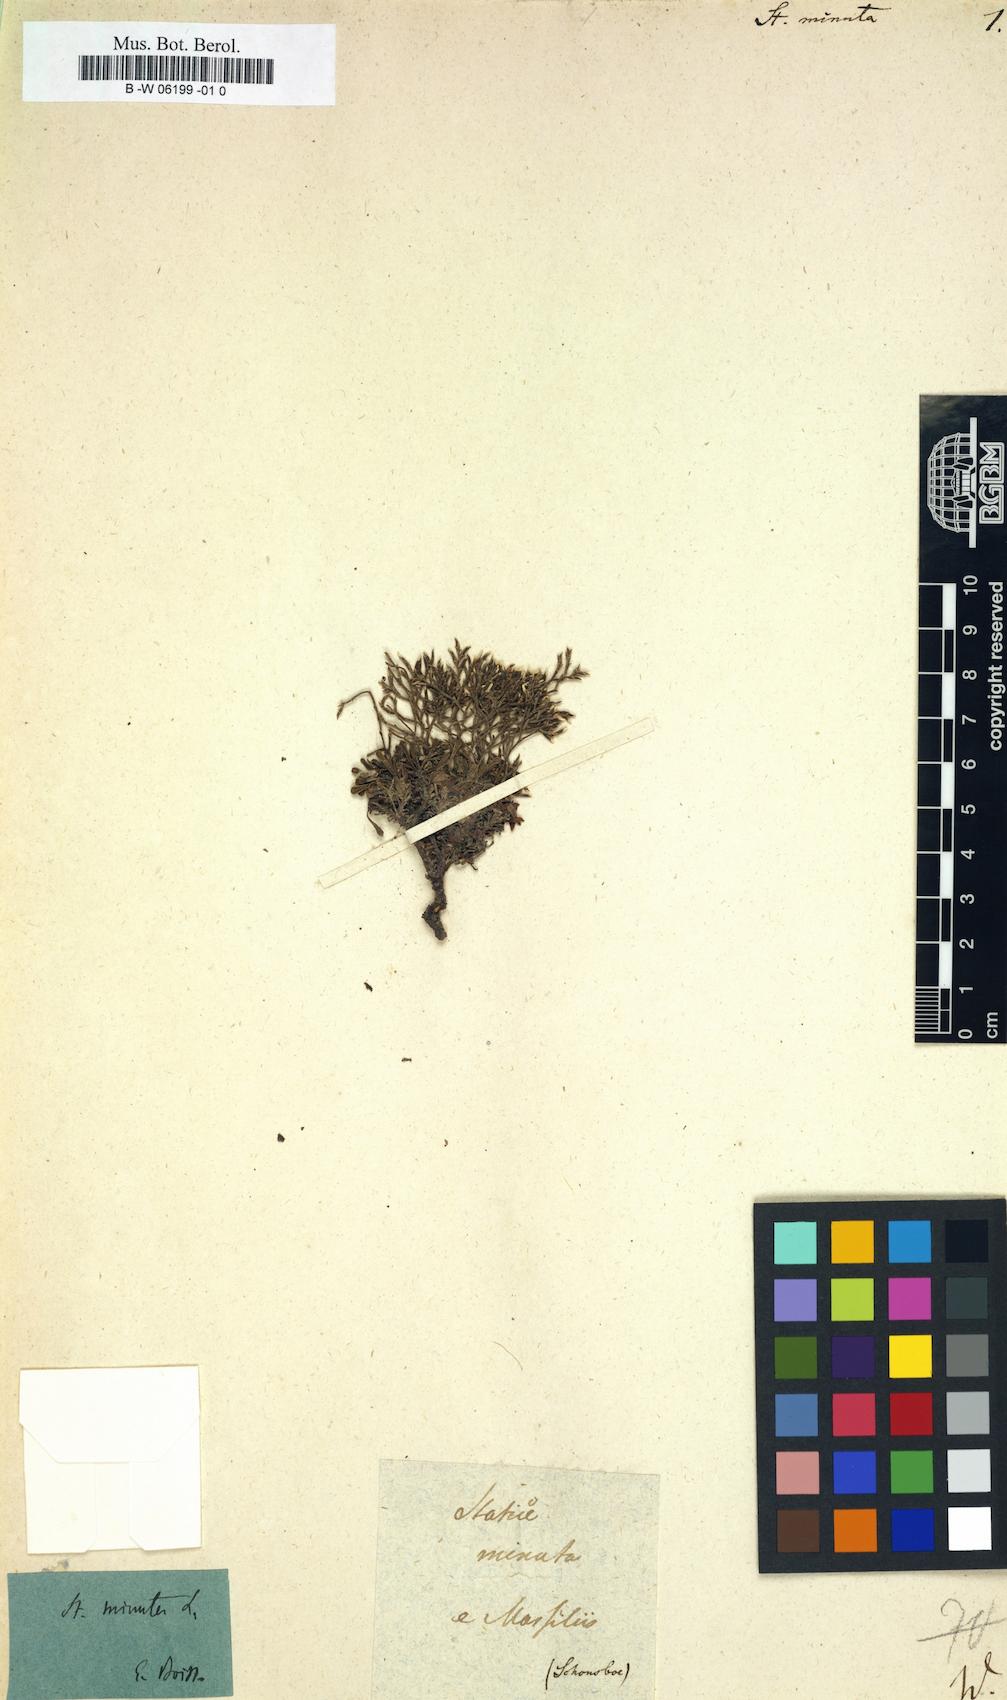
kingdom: Plantae
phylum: Tracheophyta
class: Magnoliopsida
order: Caryophyllales
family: Plumbaginaceae
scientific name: Plumbaginaceae
